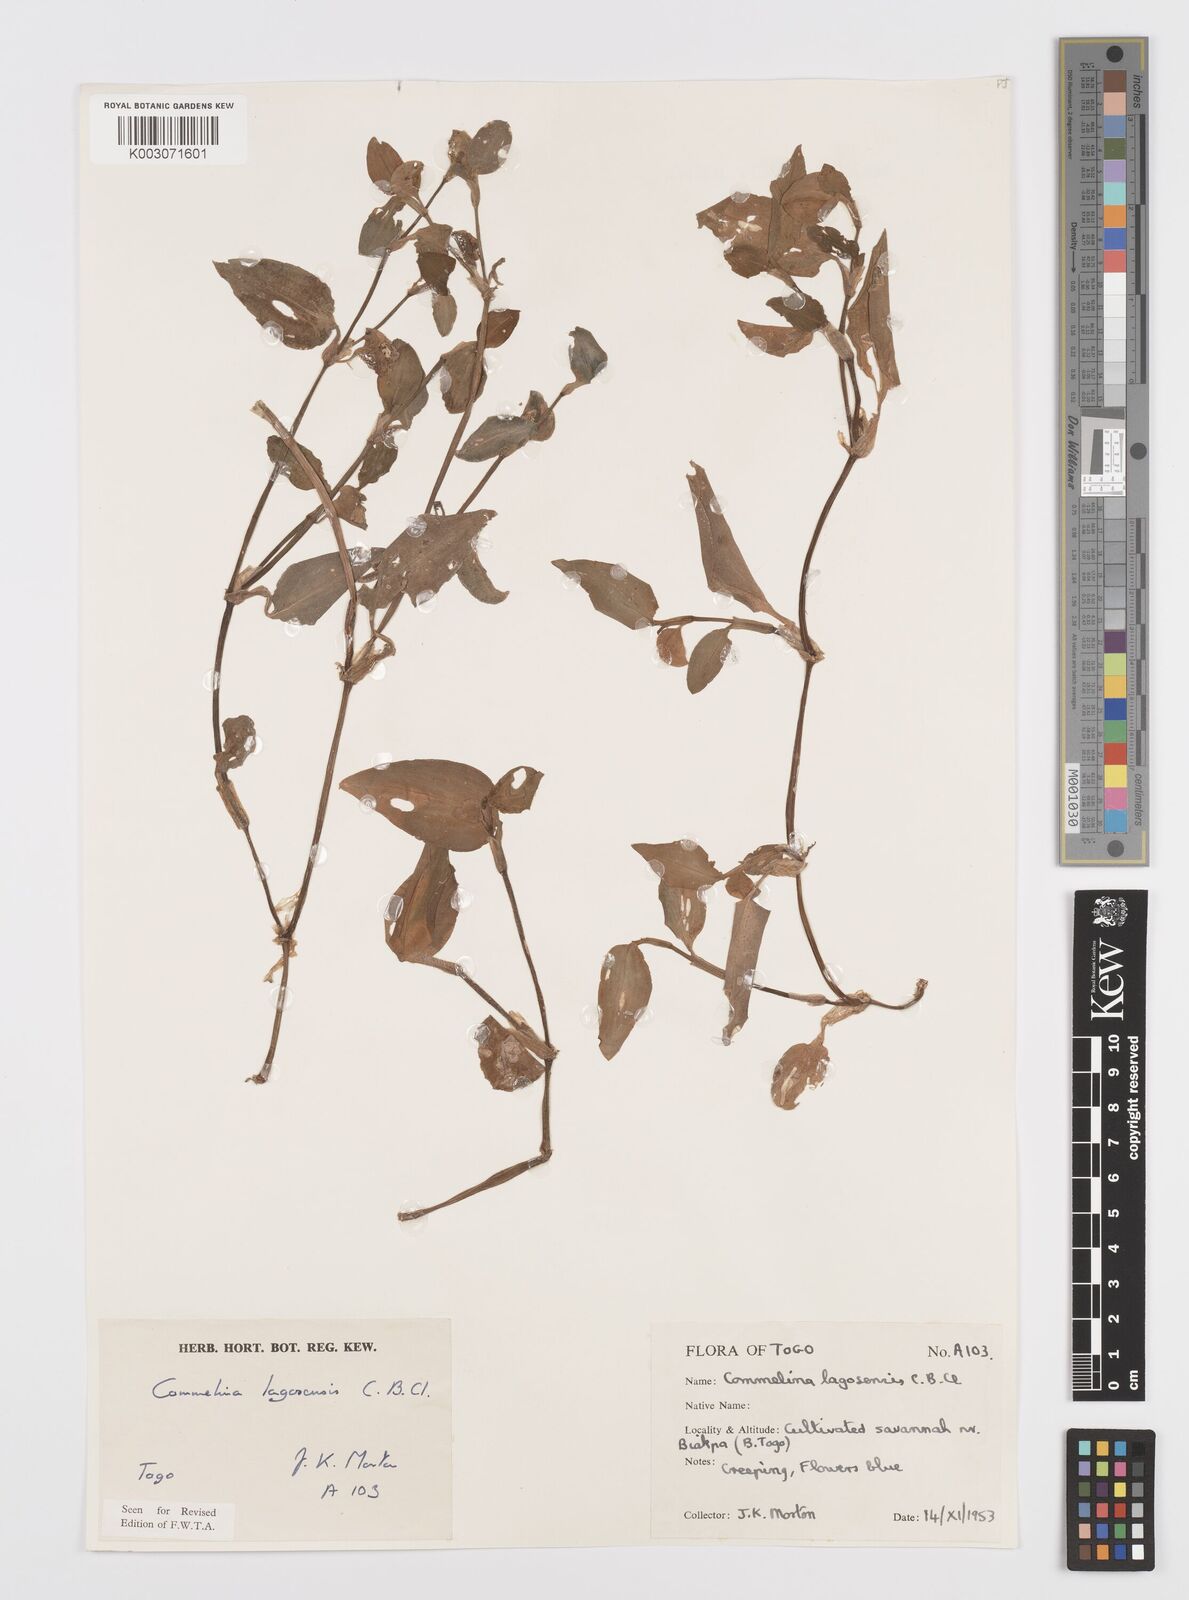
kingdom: Plantae
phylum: Tracheophyta
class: Liliopsida
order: Commelinales
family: Commelinaceae
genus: Commelina
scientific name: Commelina bracteosa
